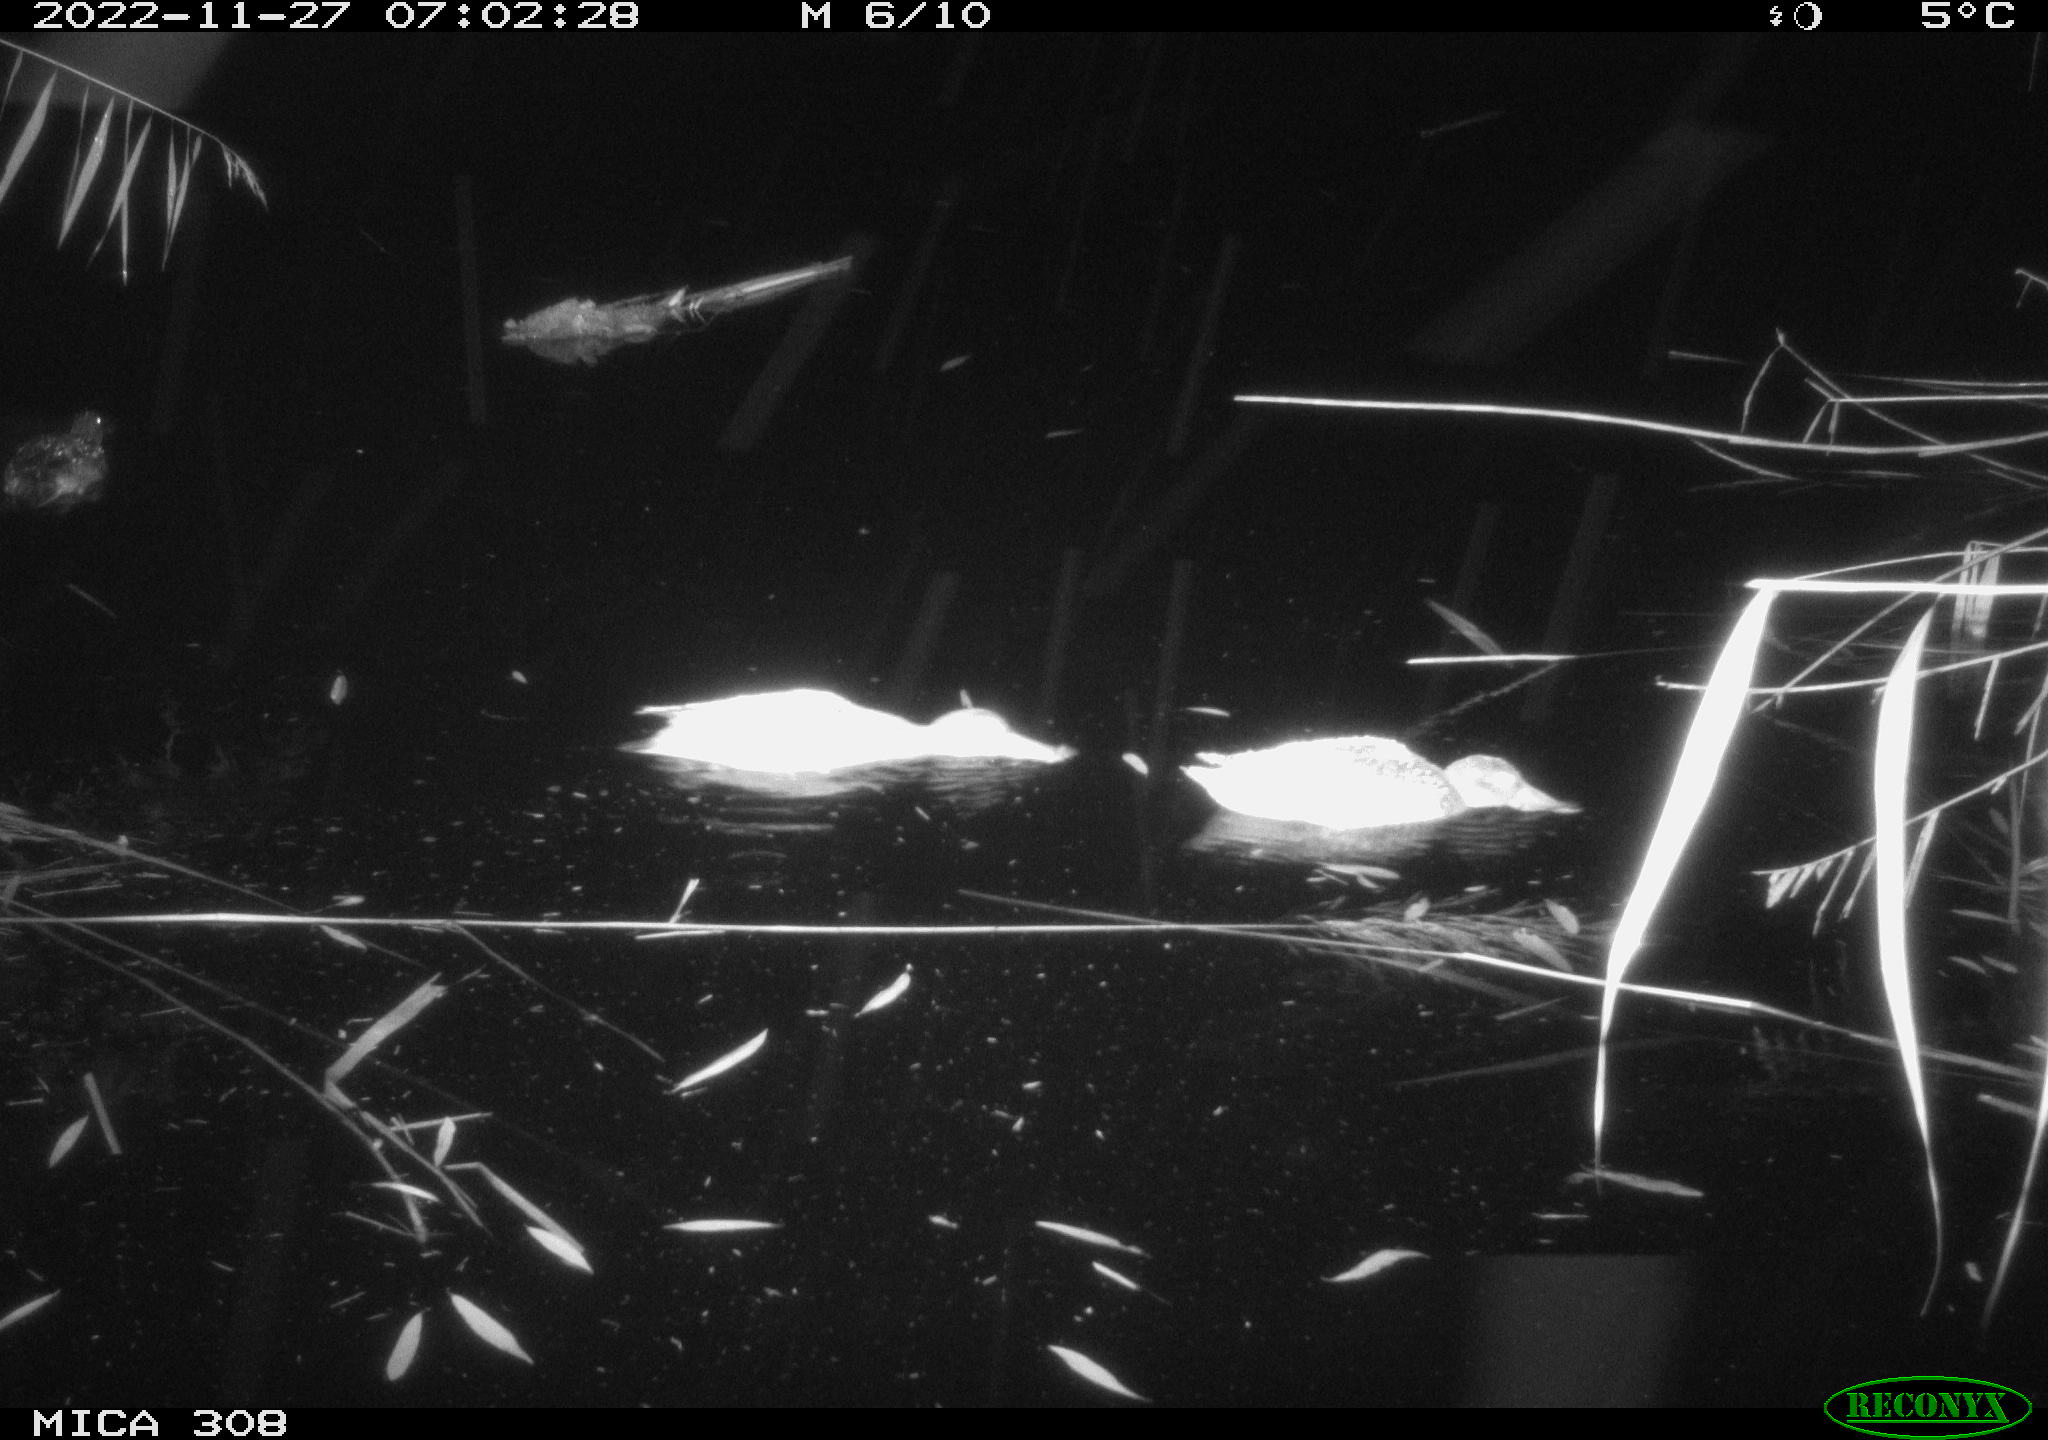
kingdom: Animalia
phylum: Chordata
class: Aves
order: Anseriformes
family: Anatidae
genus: Anas
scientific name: Anas
